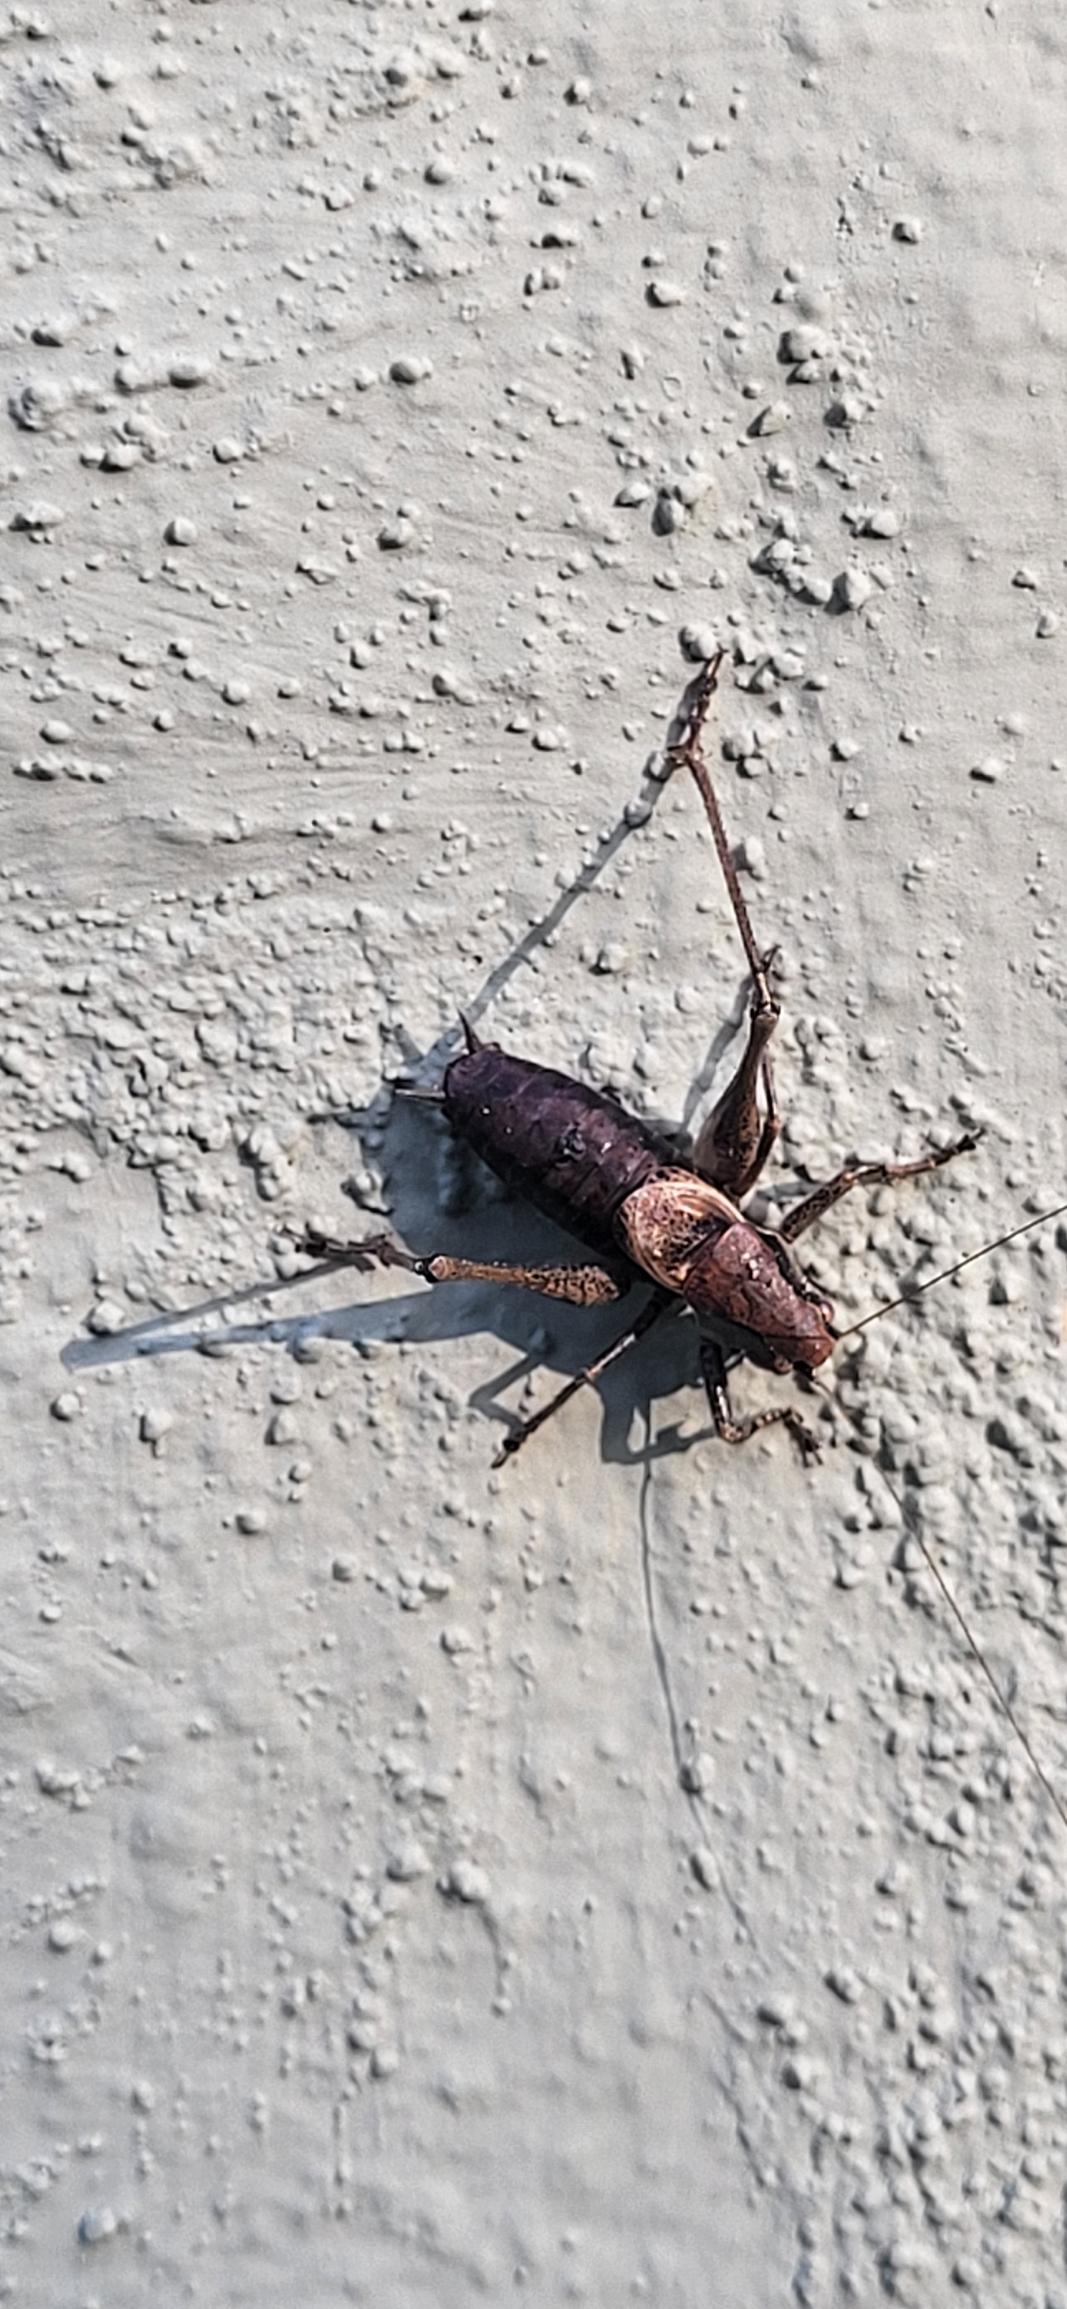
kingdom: Animalia
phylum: Arthropoda
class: Insecta
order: Orthoptera
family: Tettigoniidae
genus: Pholidoptera
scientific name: Pholidoptera griseoaptera
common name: Buskgræshoppe
